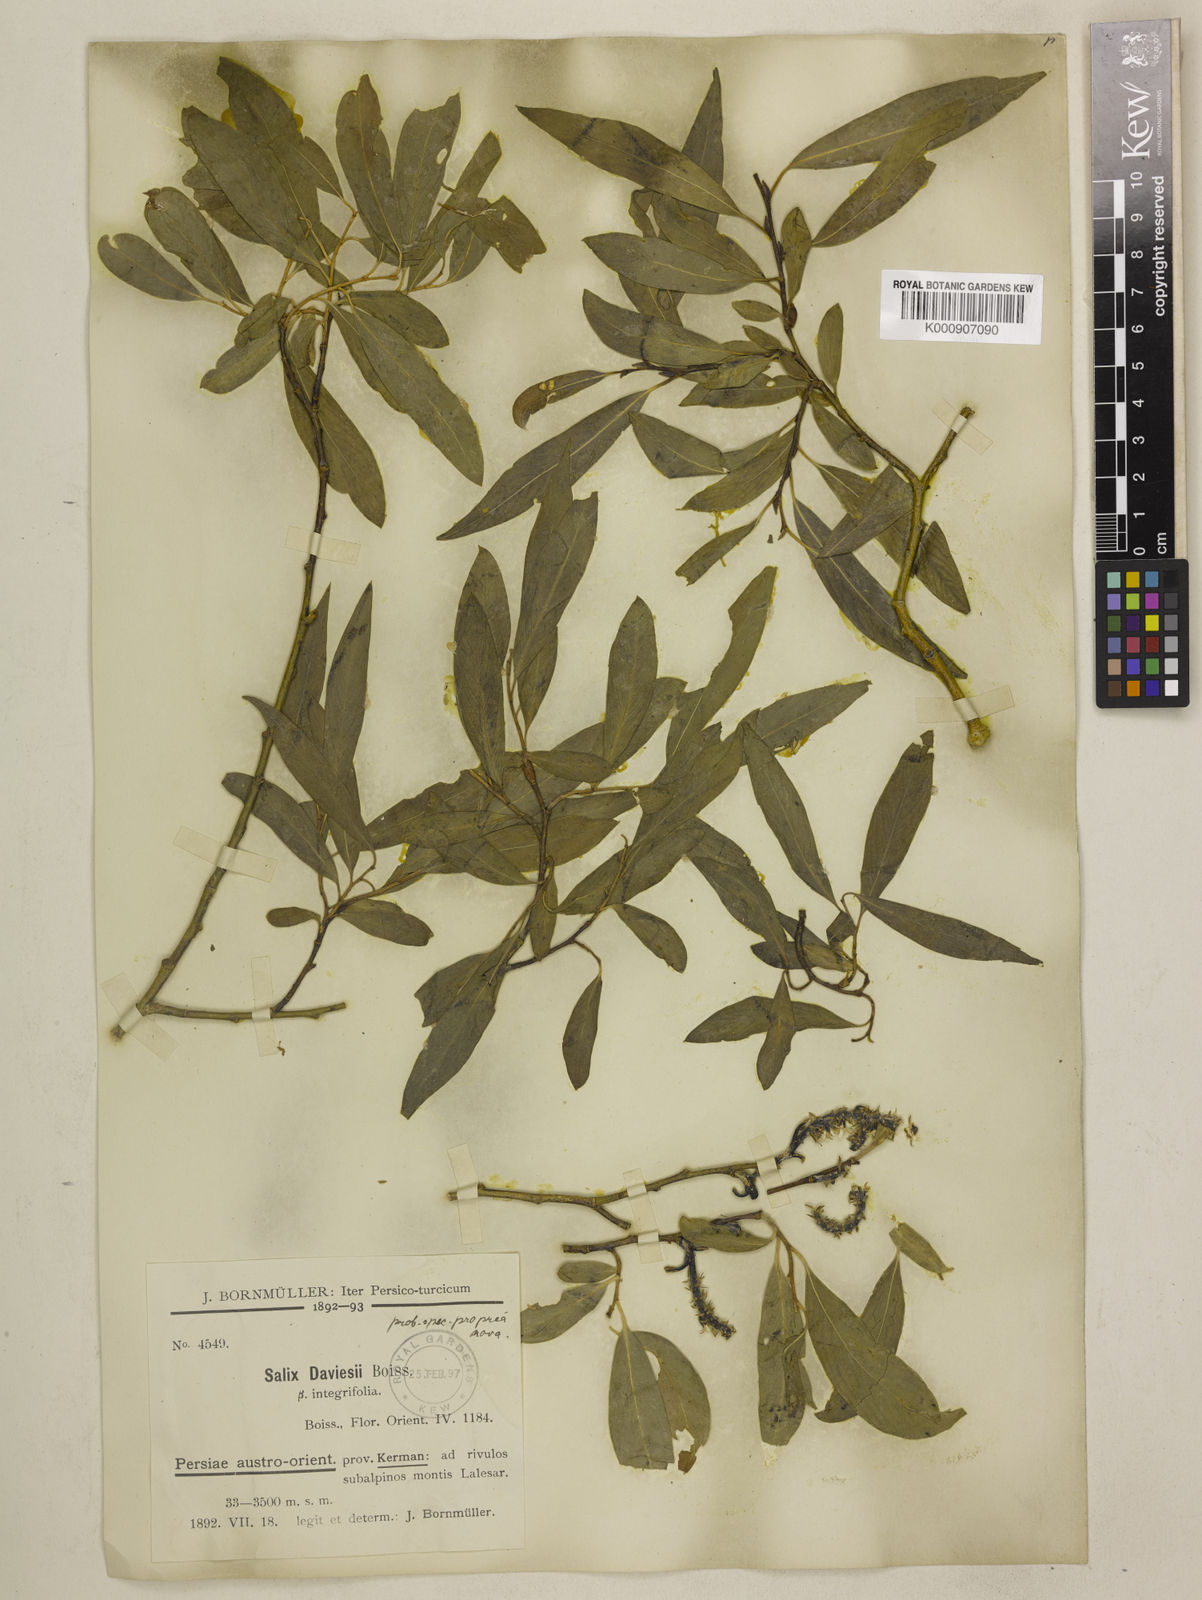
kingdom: Plantae
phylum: Tracheophyta
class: Magnoliopsida
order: Malpighiales
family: Salicaceae
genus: Salix
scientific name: Salix acmophylla
